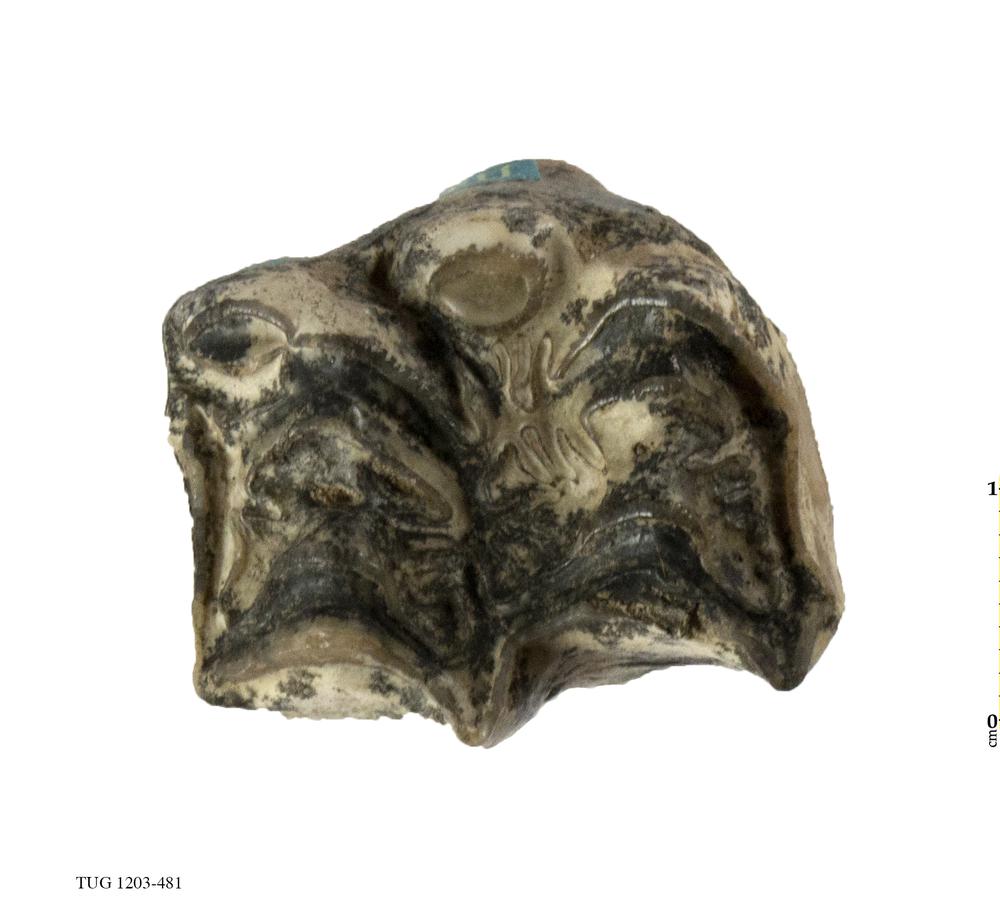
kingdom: Animalia
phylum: Chordata
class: Mammalia
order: Perissodactyla
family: Equidae
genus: Hipparion
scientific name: Hipparion
